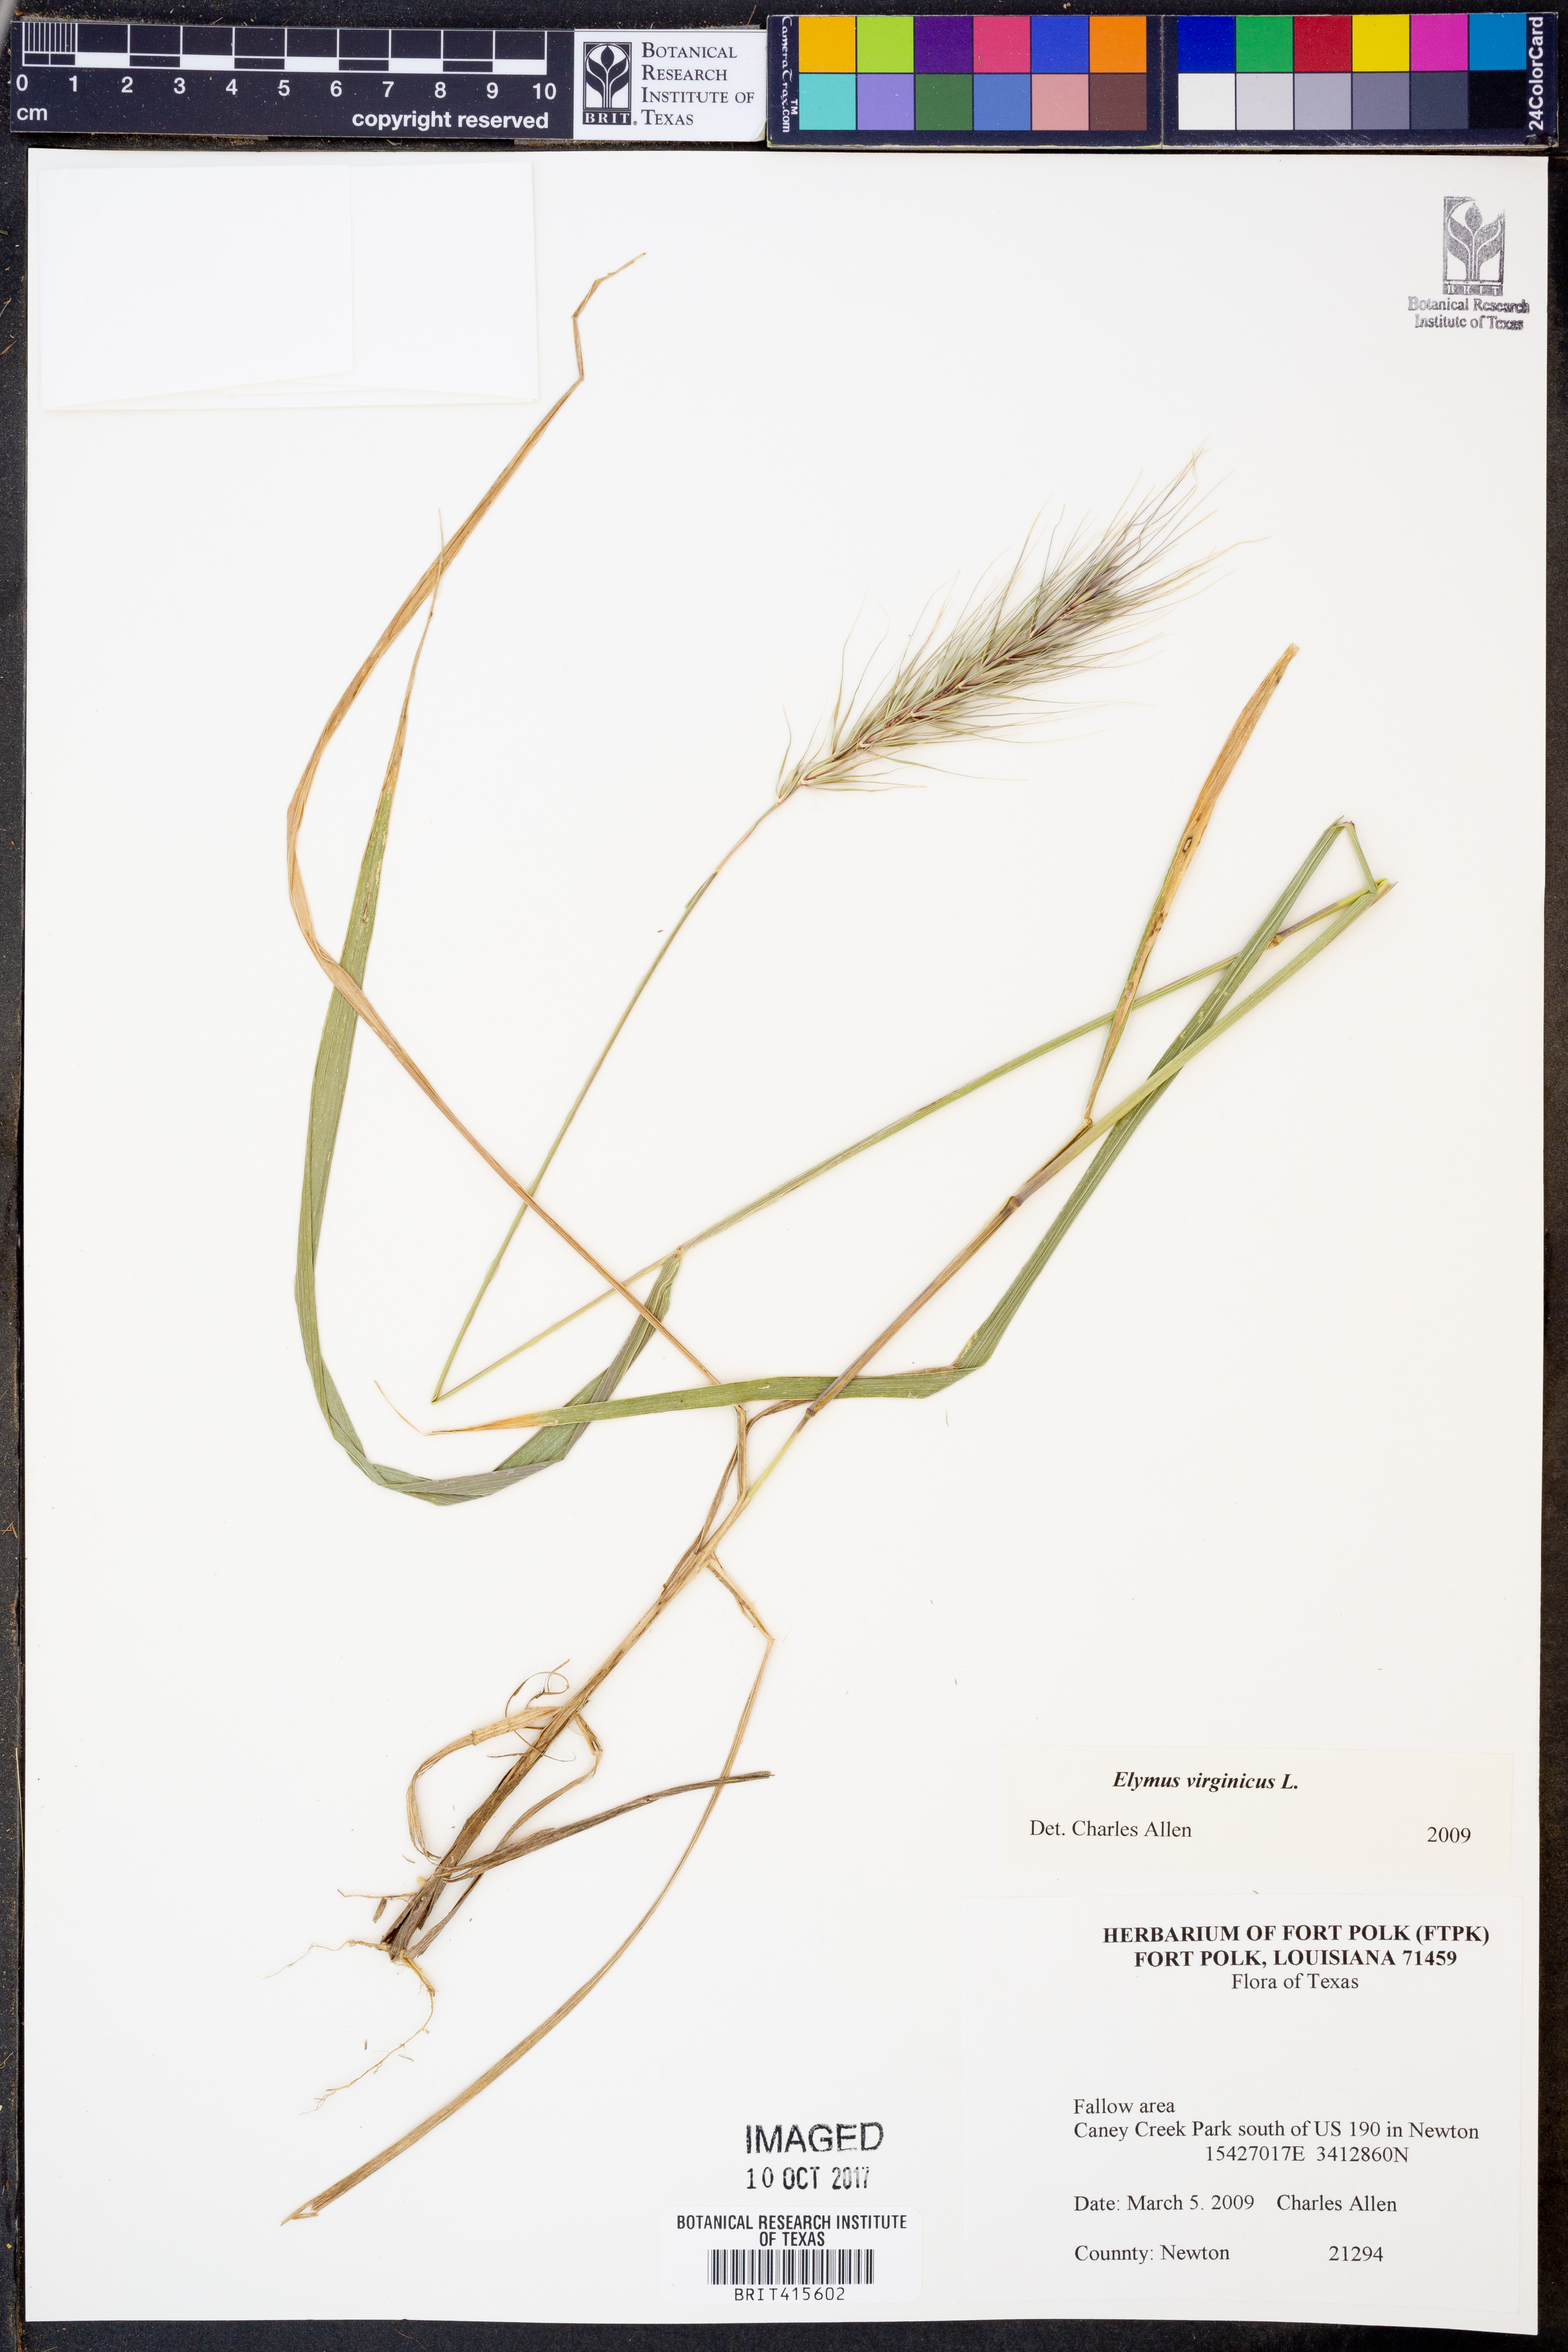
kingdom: Plantae
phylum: Tracheophyta
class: Liliopsida
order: Poales
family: Poaceae
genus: Elymus
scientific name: Elymus virginicus
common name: Common eastern wildrye
